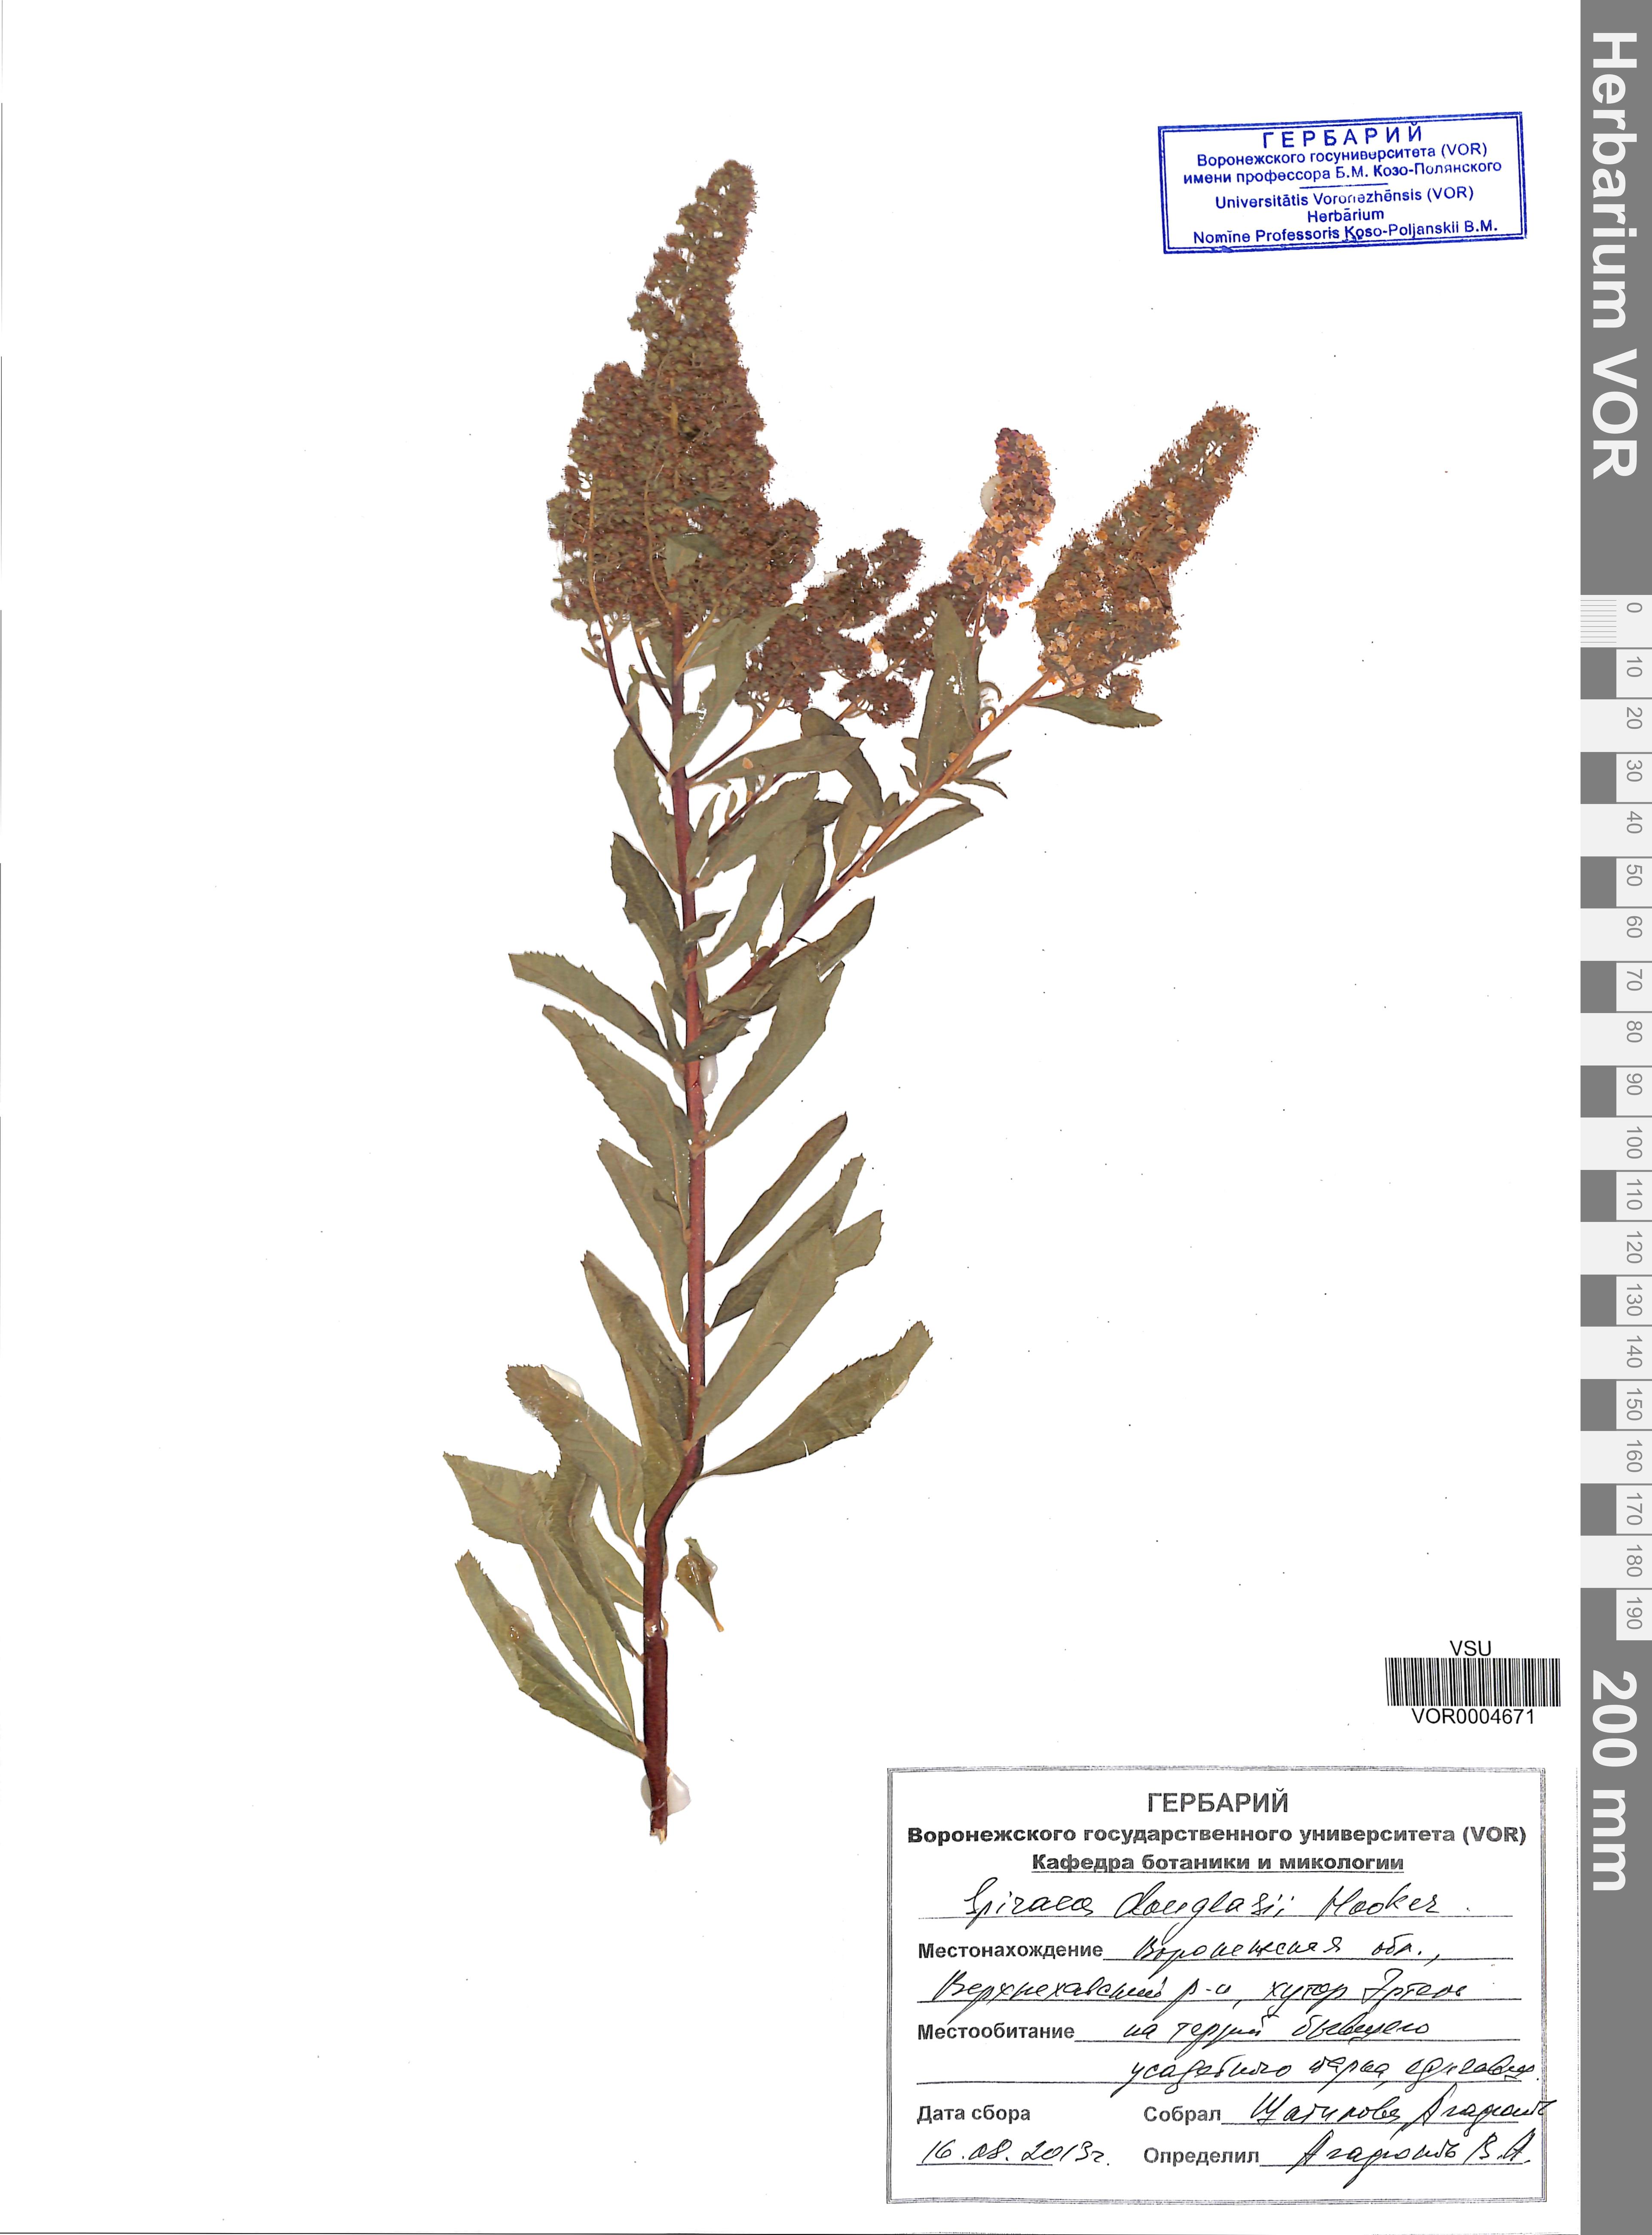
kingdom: Plantae
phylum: Tracheophyta
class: Magnoliopsida
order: Rosales
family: Rosaceae
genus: Spiraea
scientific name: Spiraea douglasii
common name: Steeplebush
